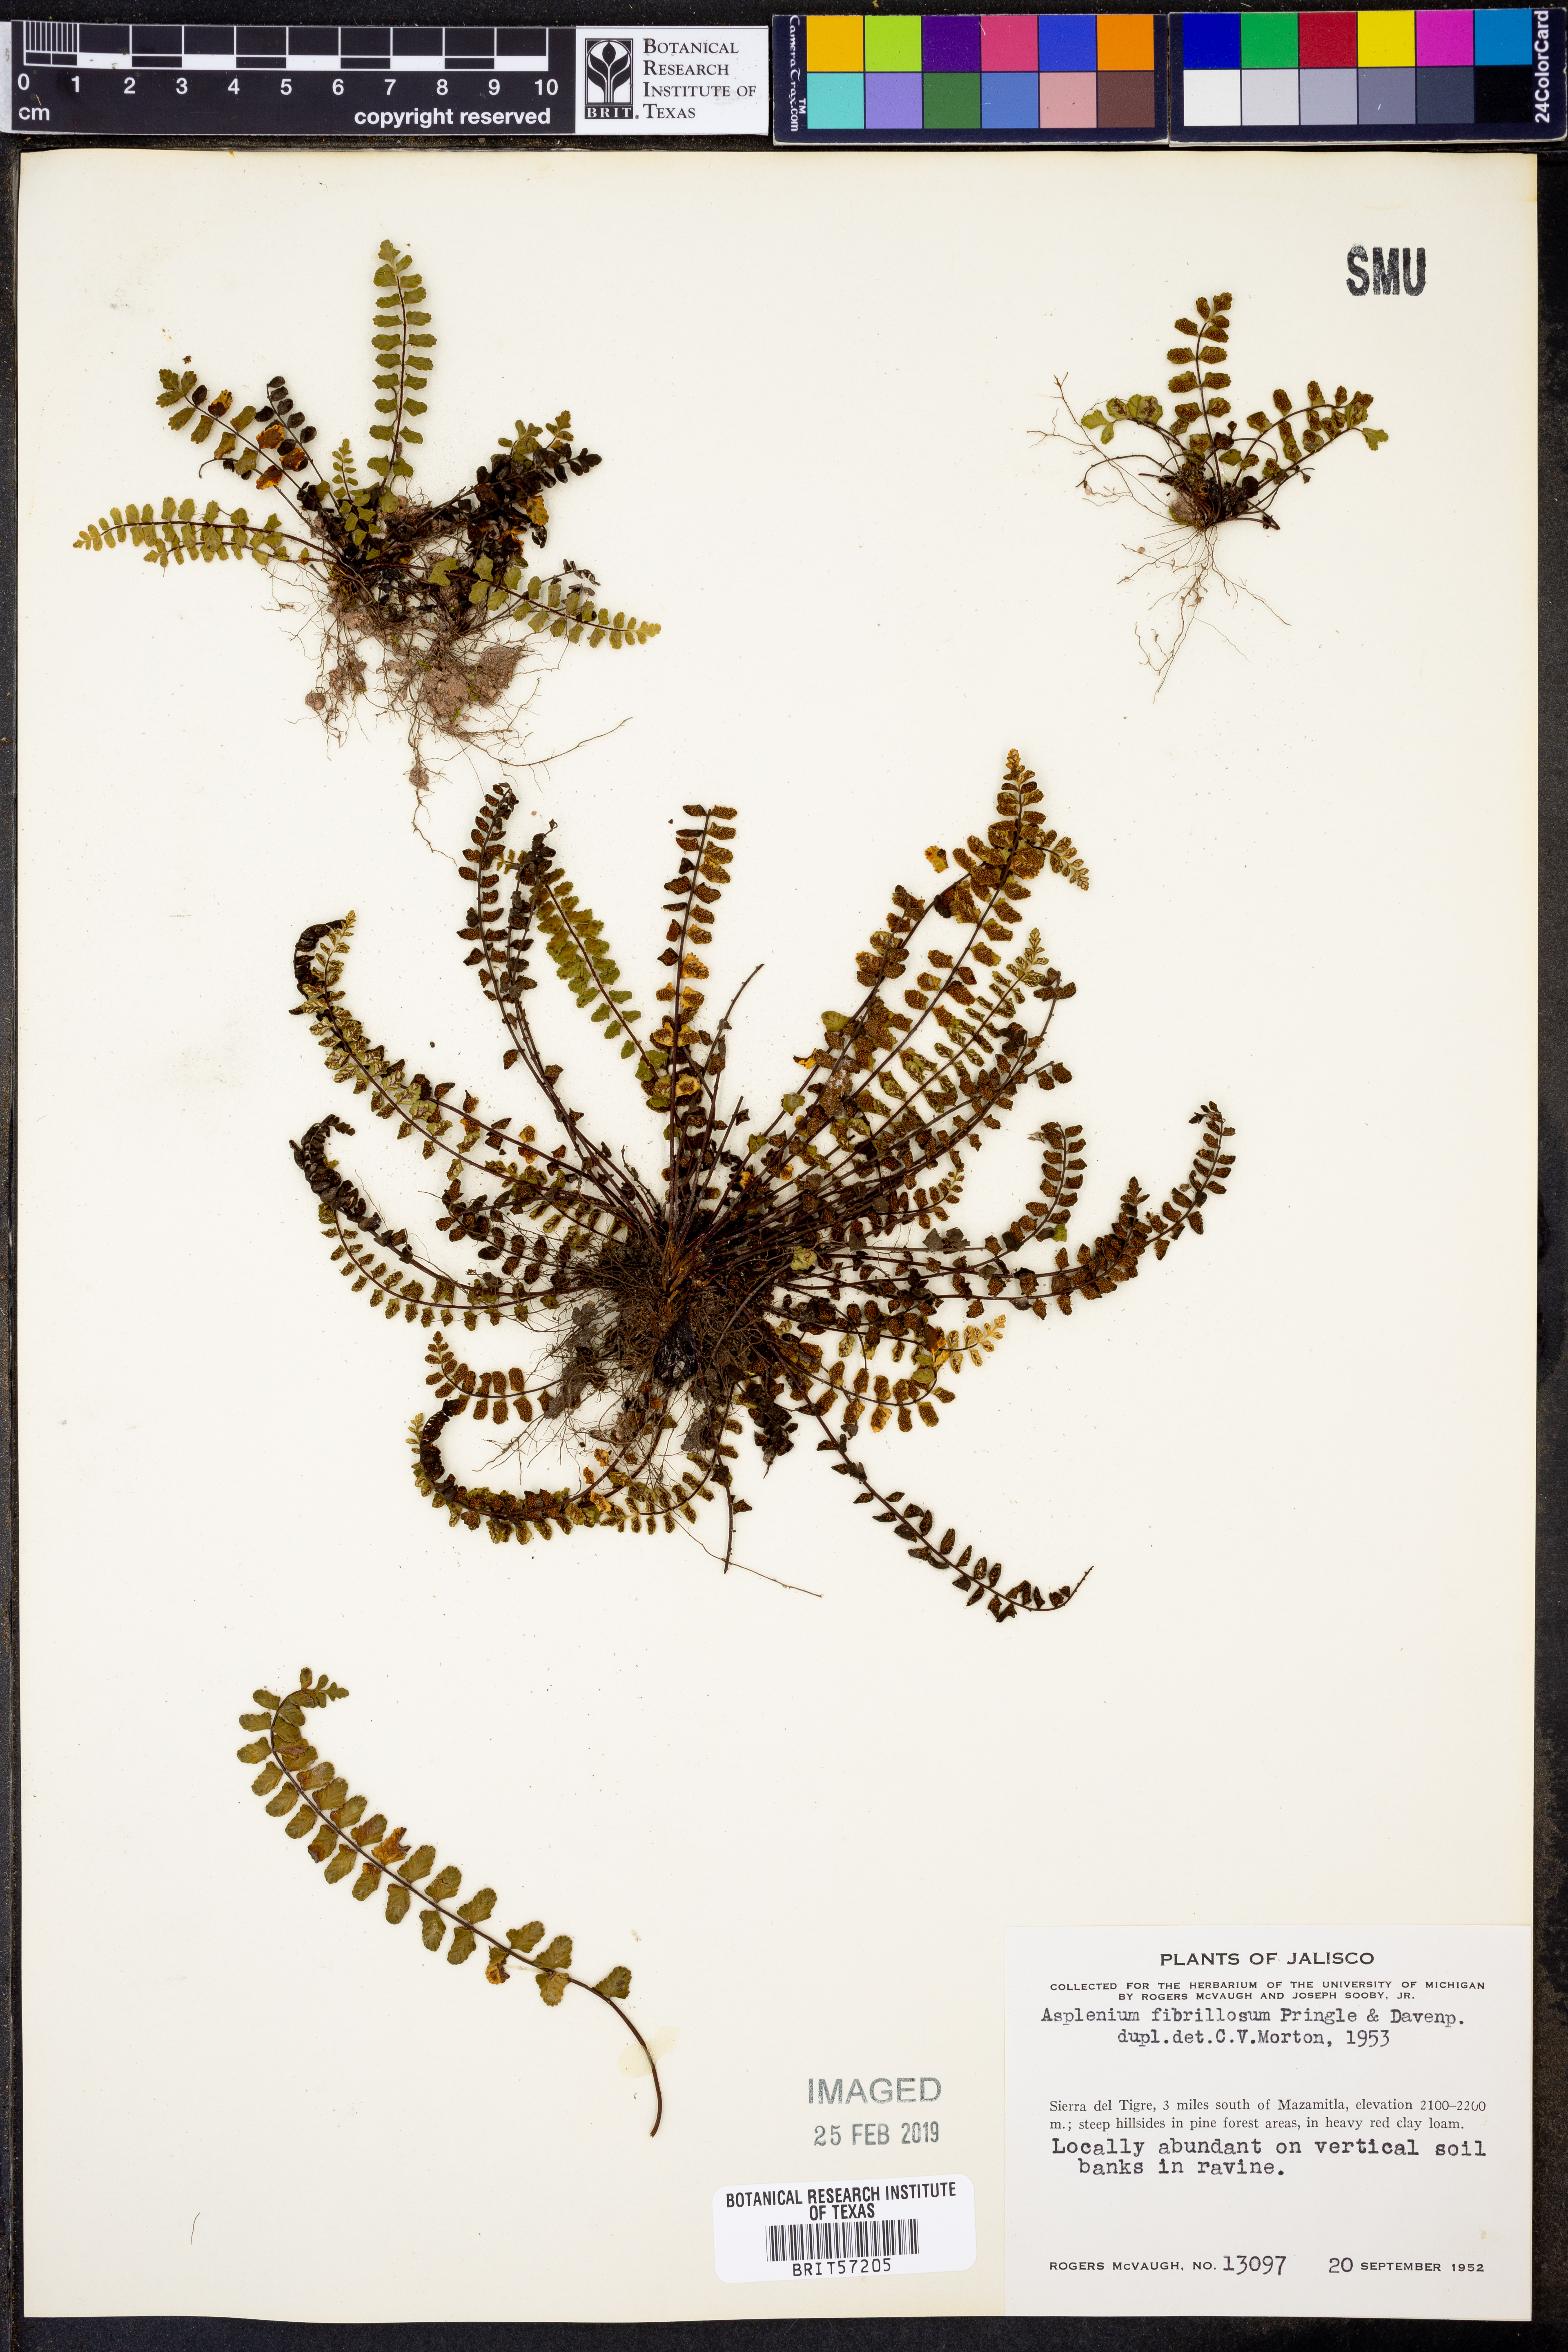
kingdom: Plantae
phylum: Tracheophyta
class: Polypodiopsida
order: Polypodiales
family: Aspleniaceae
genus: Asplenium
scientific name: Asplenium fibrillosum
